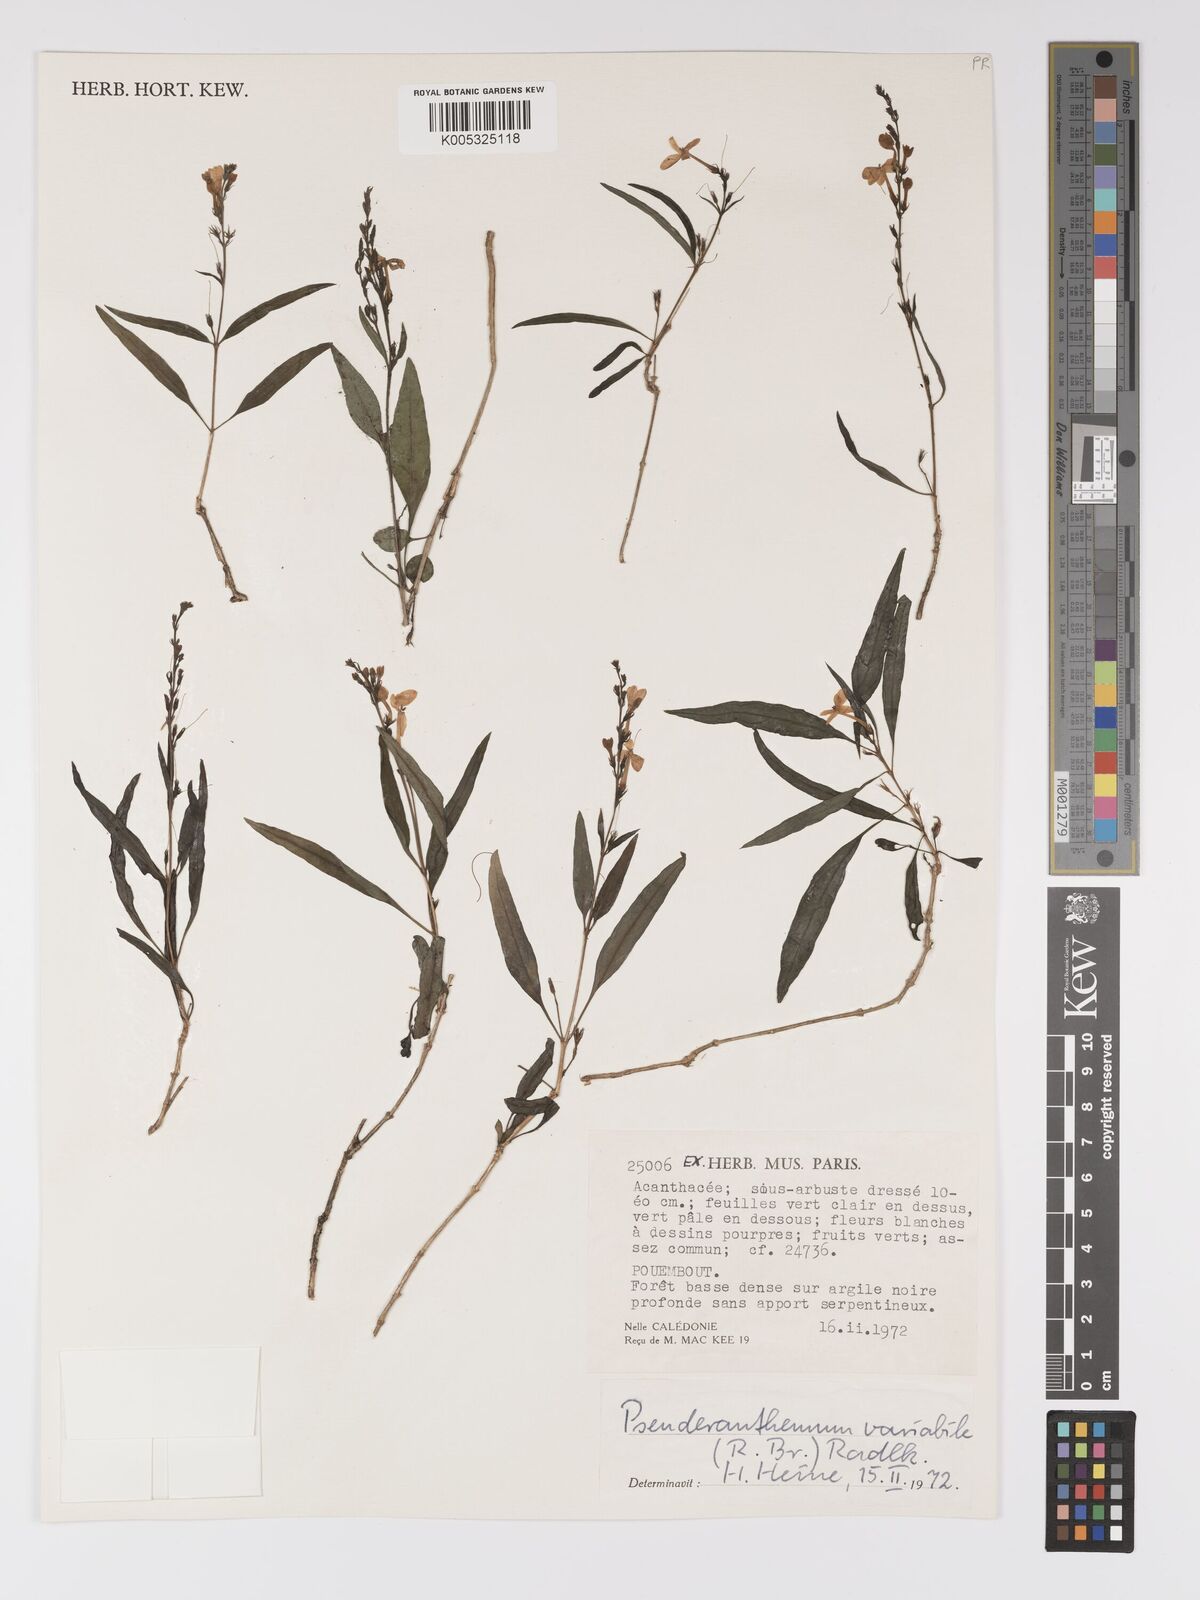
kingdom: Plantae
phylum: Tracheophyta
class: Magnoliopsida
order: Lamiales
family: Acanthaceae
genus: Pseuderanthemum
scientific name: Pseuderanthemum variabile
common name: Night and afternoon
